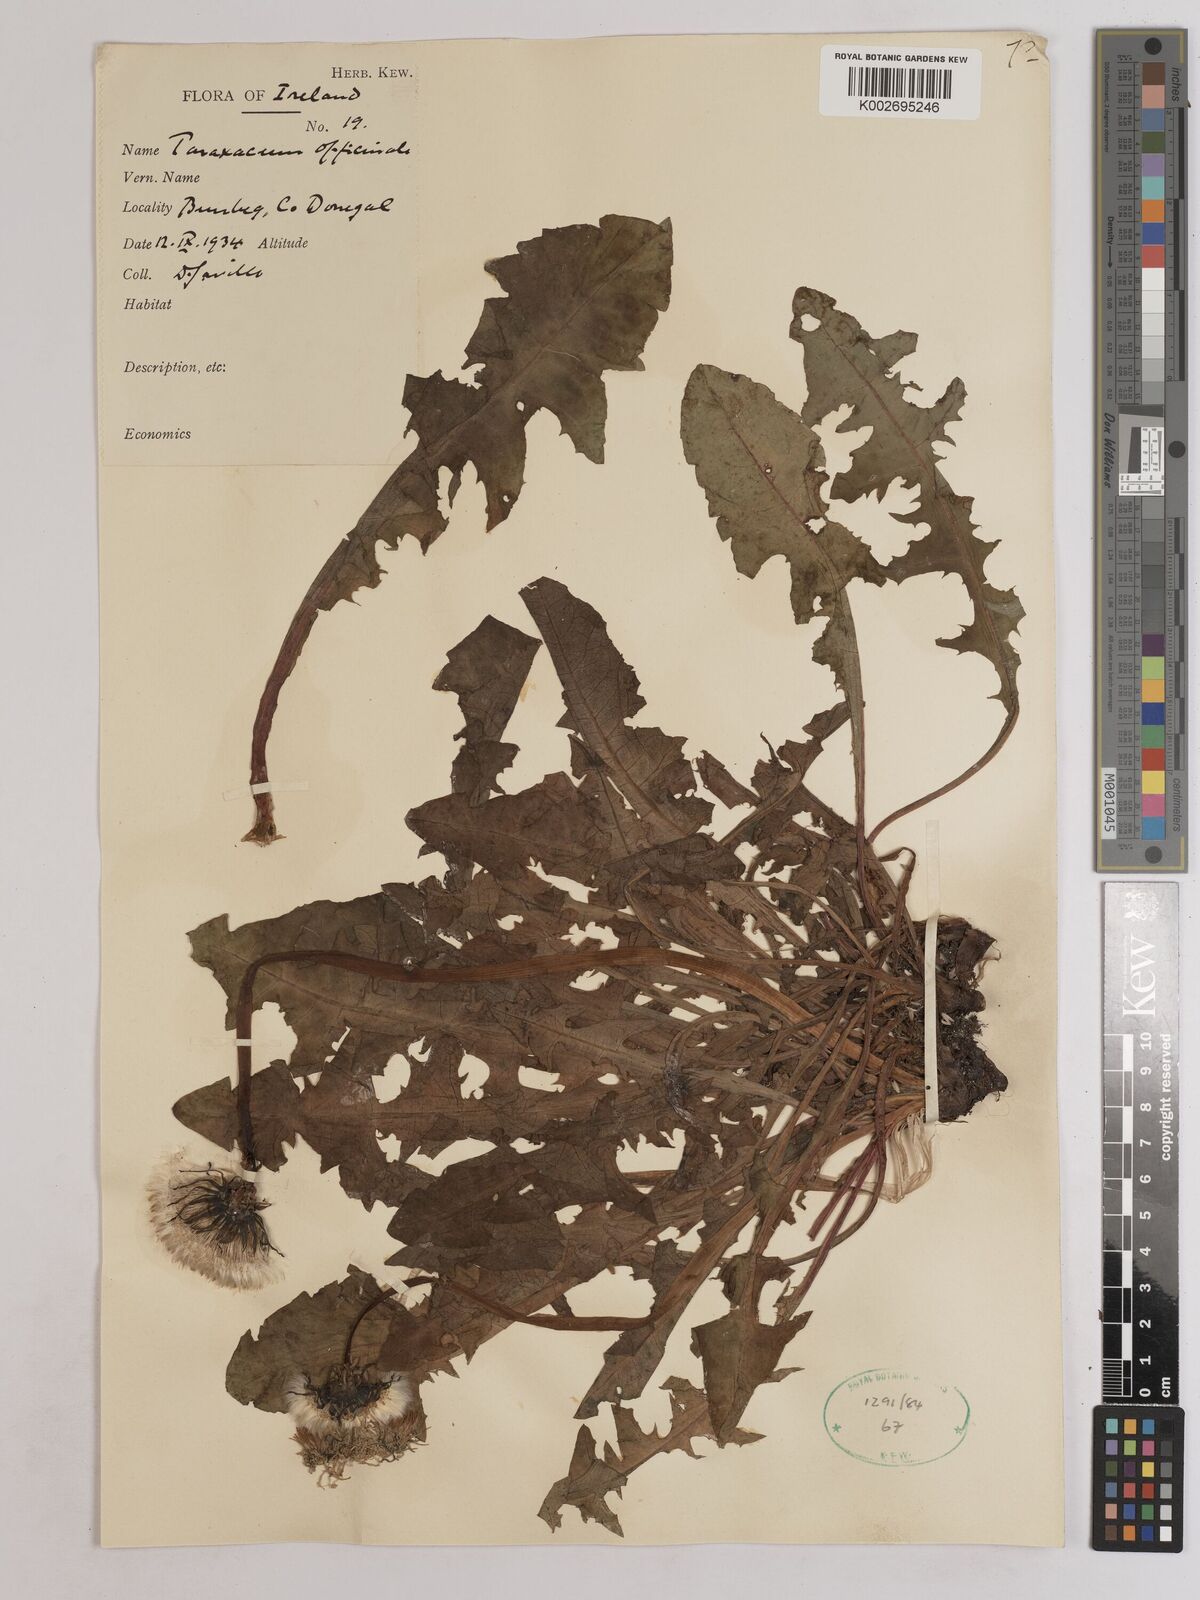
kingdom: Plantae
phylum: Tracheophyta
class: Magnoliopsida
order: Asterales
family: Asteraceae
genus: Taraxacum
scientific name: Taraxacum officinale
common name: Common dandelion
